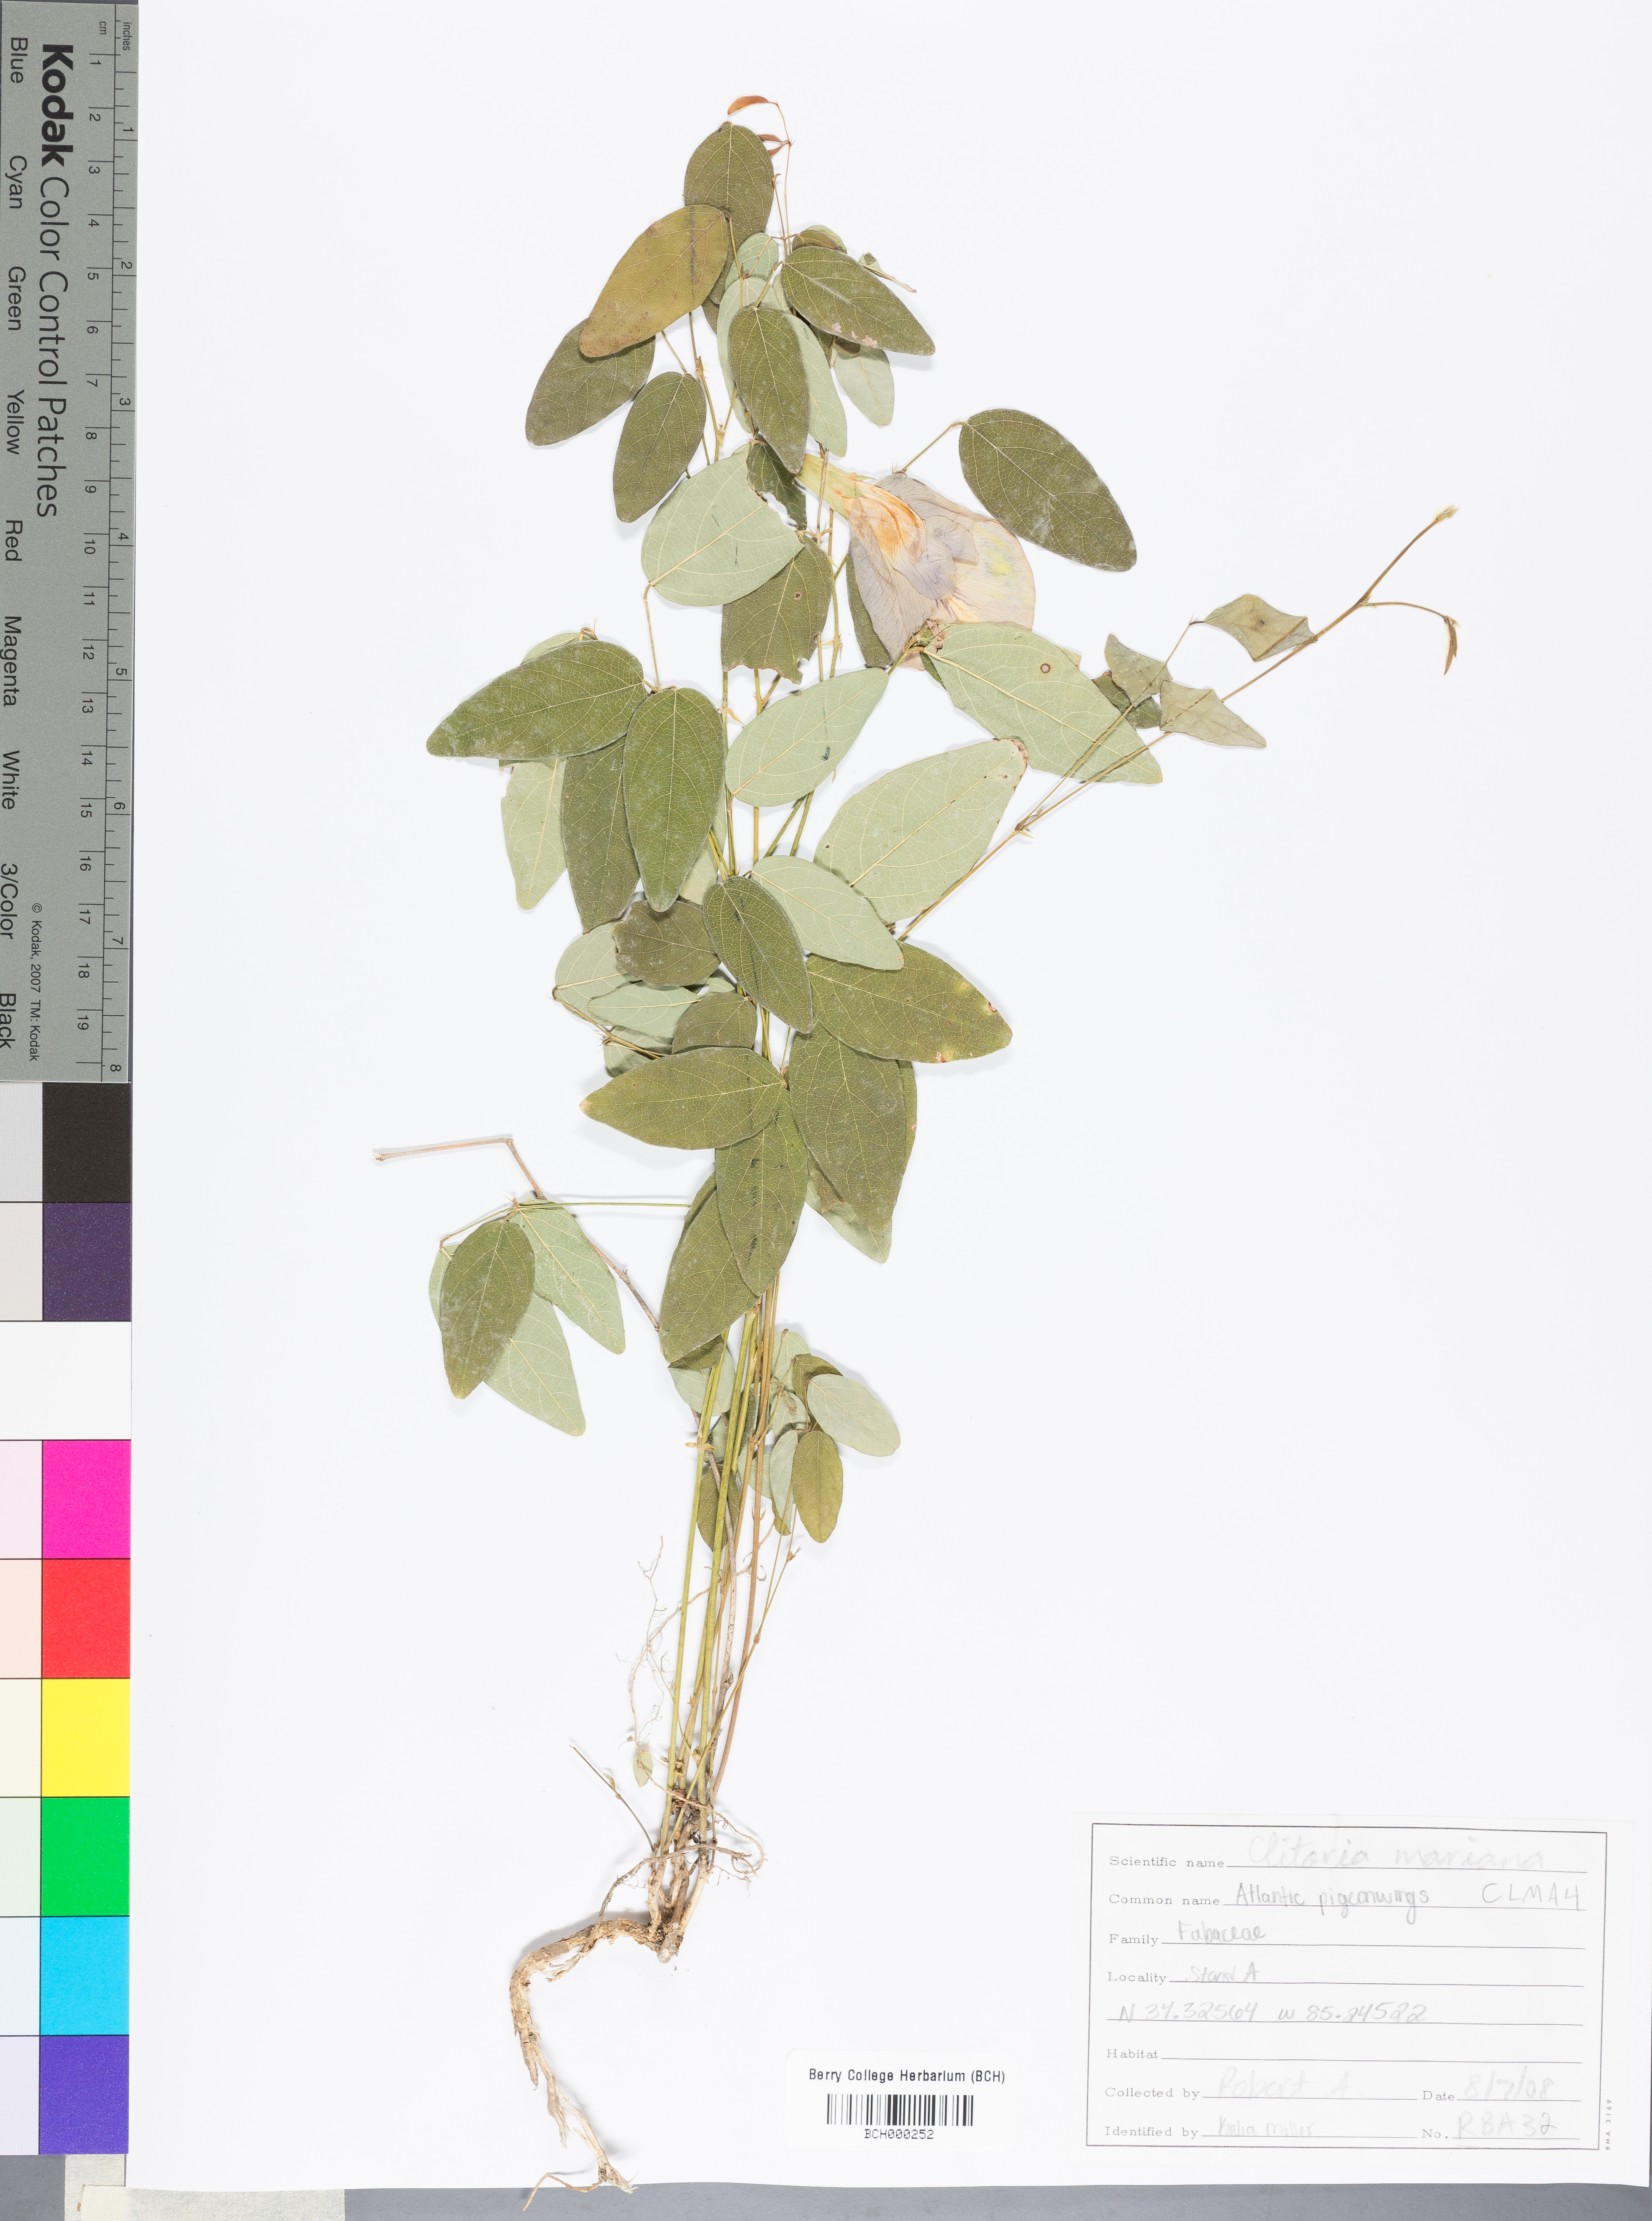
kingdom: Plantae
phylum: Tracheophyta
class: Magnoliopsida
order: Fabales
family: Fabaceae
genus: Clitoria
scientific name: Clitoria mariana
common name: Butterfly-pea
